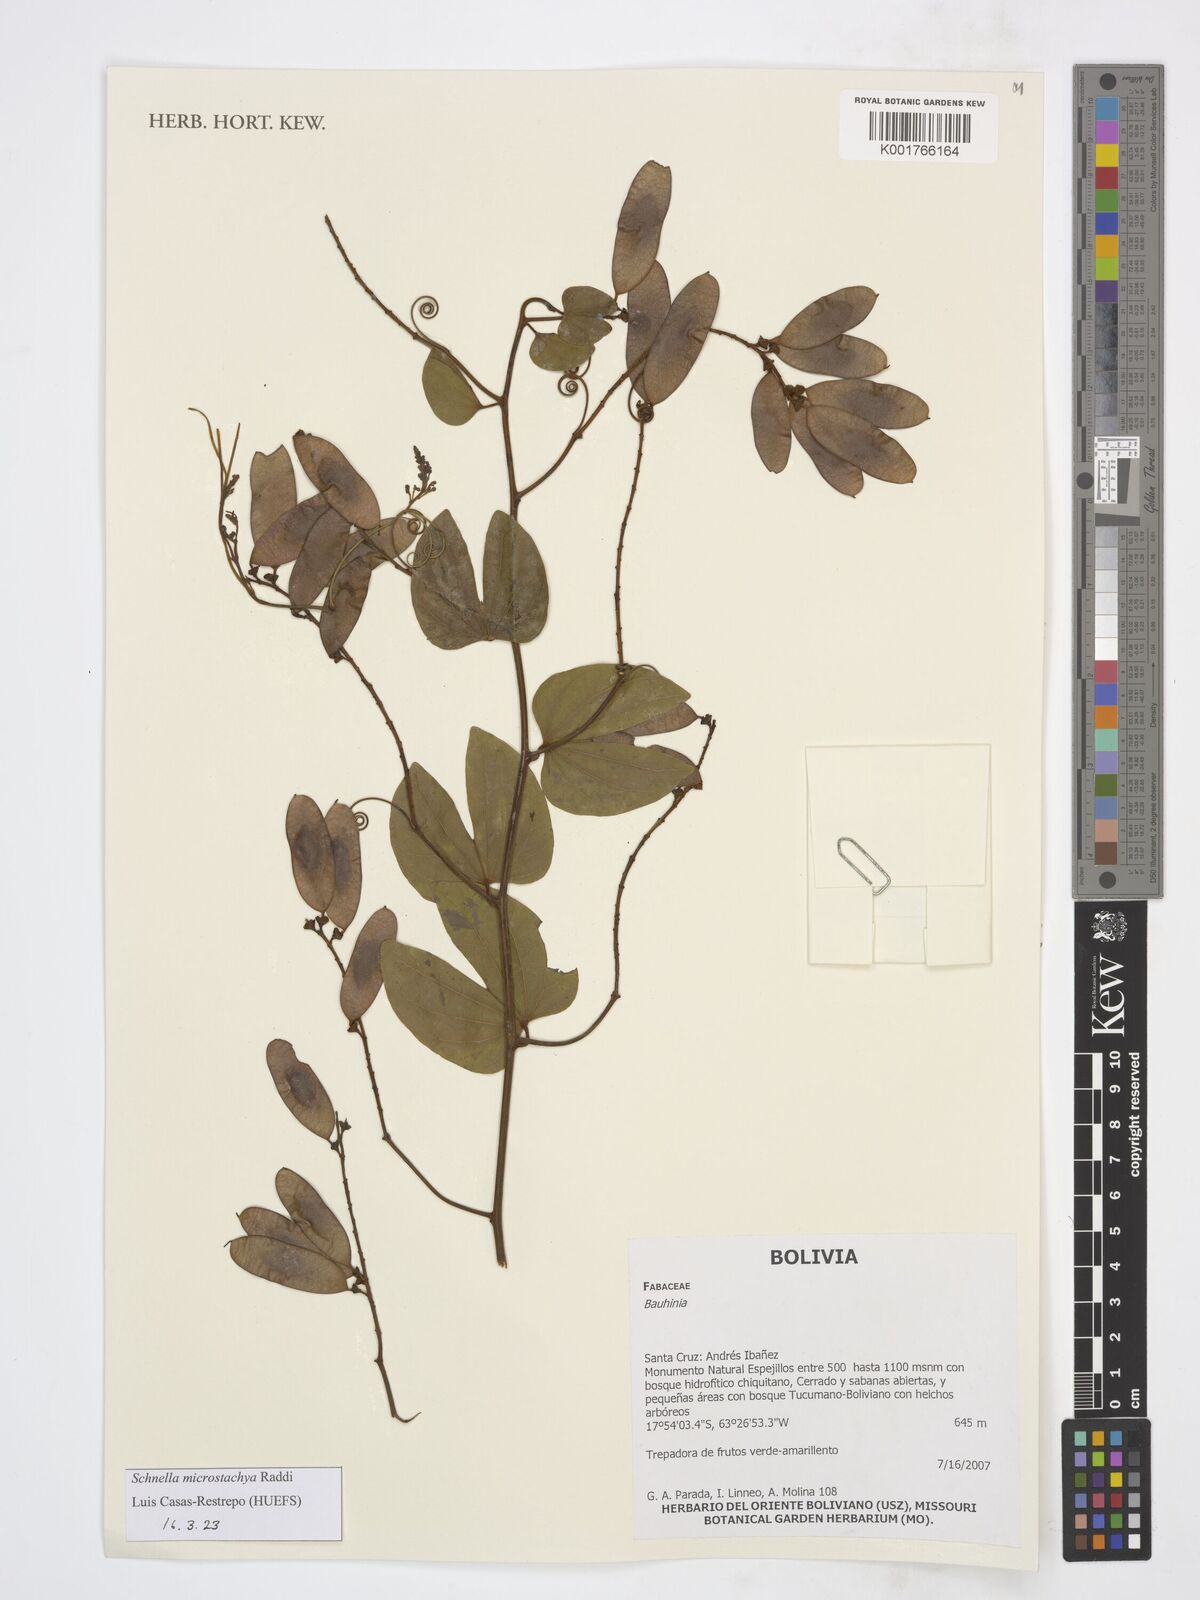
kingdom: Plantae
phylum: Tracheophyta
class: Magnoliopsida
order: Fabales
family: Fabaceae
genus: Schnella
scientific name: Schnella microstachya
